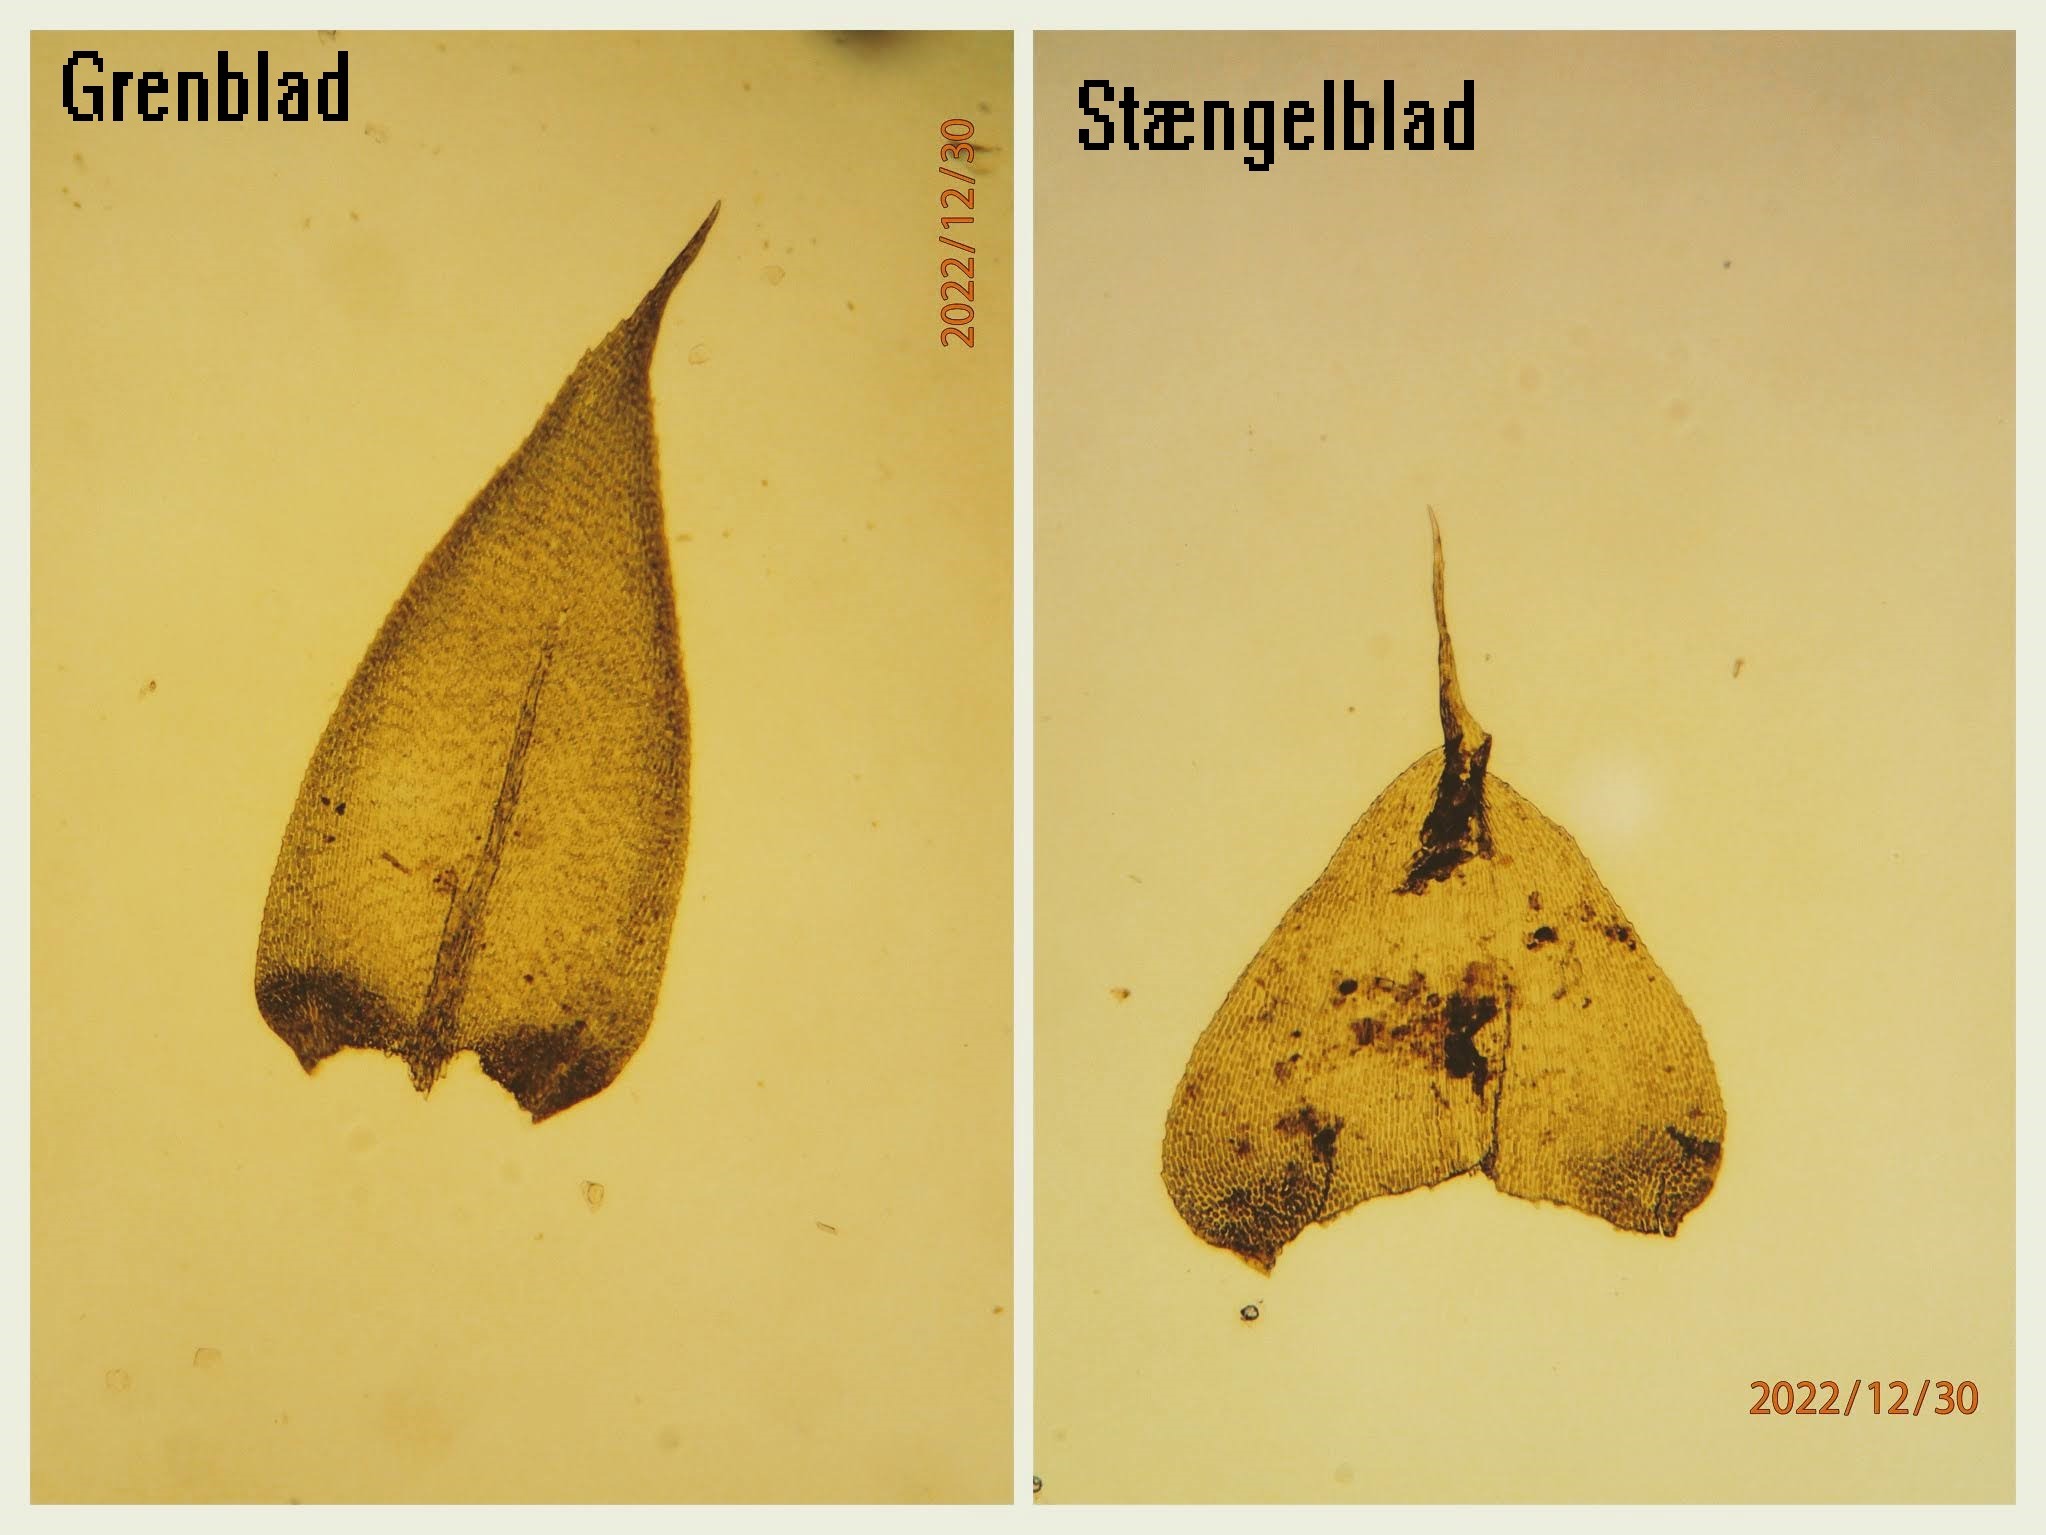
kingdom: Plantae
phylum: Bryophyta
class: Bryopsida
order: Hypnales
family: Lembophyllaceae
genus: Pseudisothecium
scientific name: Pseudisothecium myosuroides
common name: Slank stammemos
